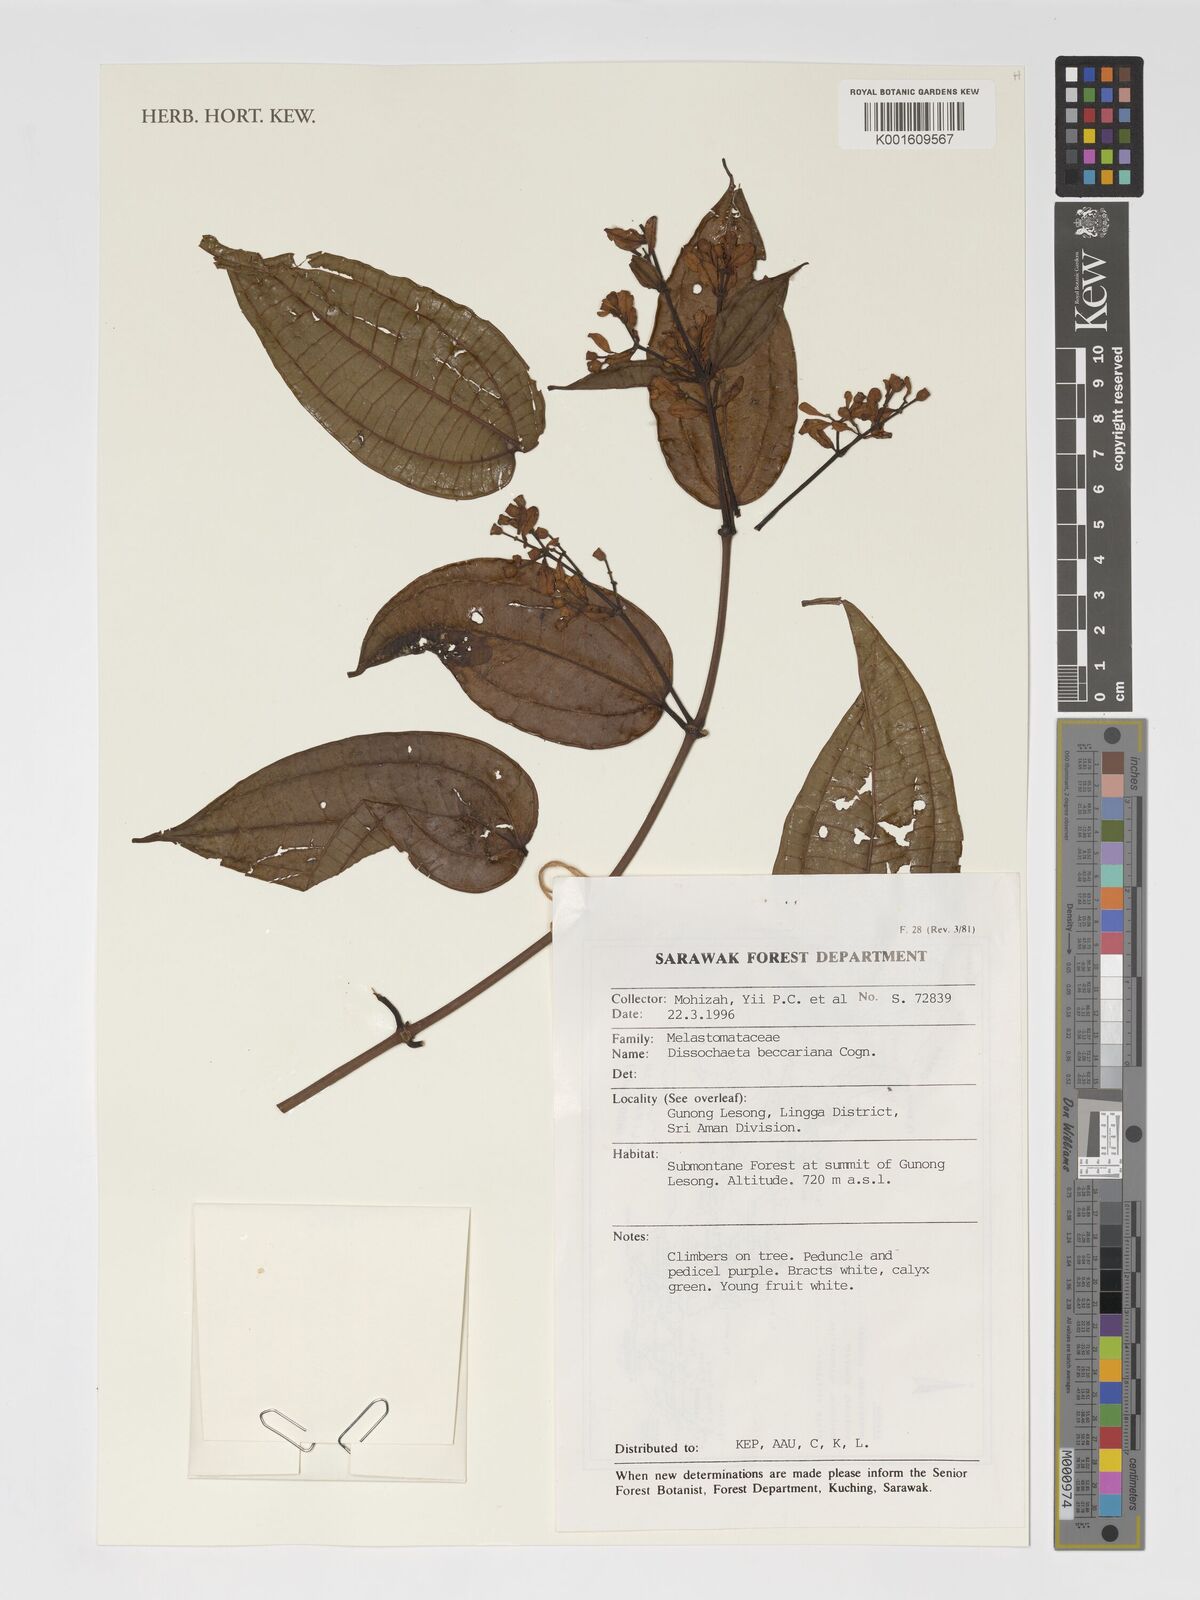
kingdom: Plantae
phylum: Tracheophyta
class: Magnoliopsida
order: Myrtales
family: Melastomataceae
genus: Dalenia
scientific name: Dalenia magnibracteata
